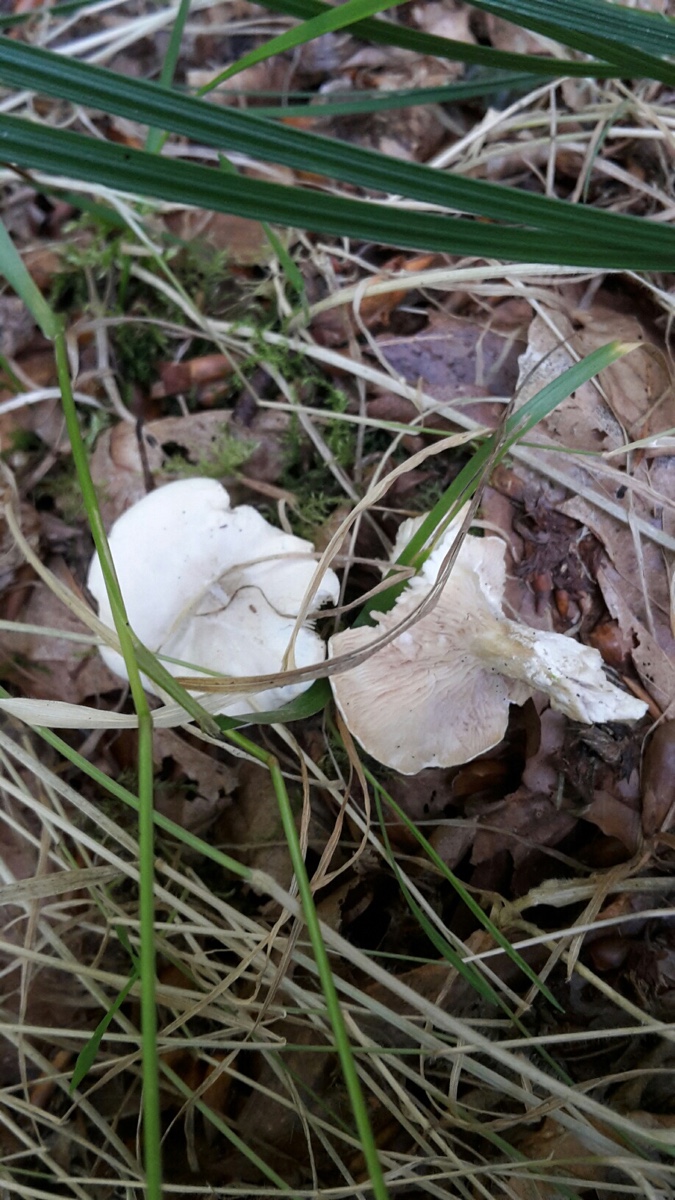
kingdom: Fungi
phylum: Basidiomycota
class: Agaricomycetes
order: Agaricales
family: Entolomataceae
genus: Clitopilus
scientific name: Clitopilus prunulus
